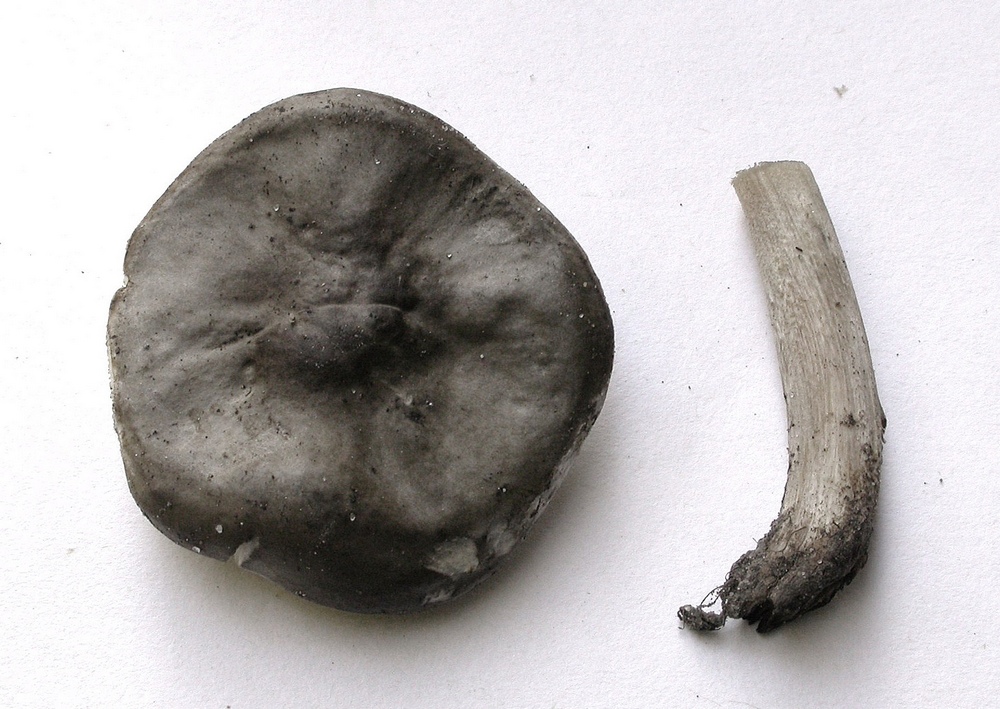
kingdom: Fungi
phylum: Basidiomycota
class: Agaricomycetes
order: Agaricales
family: Tricholomataceae
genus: Melanoleuca
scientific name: Melanoleuca oreina
